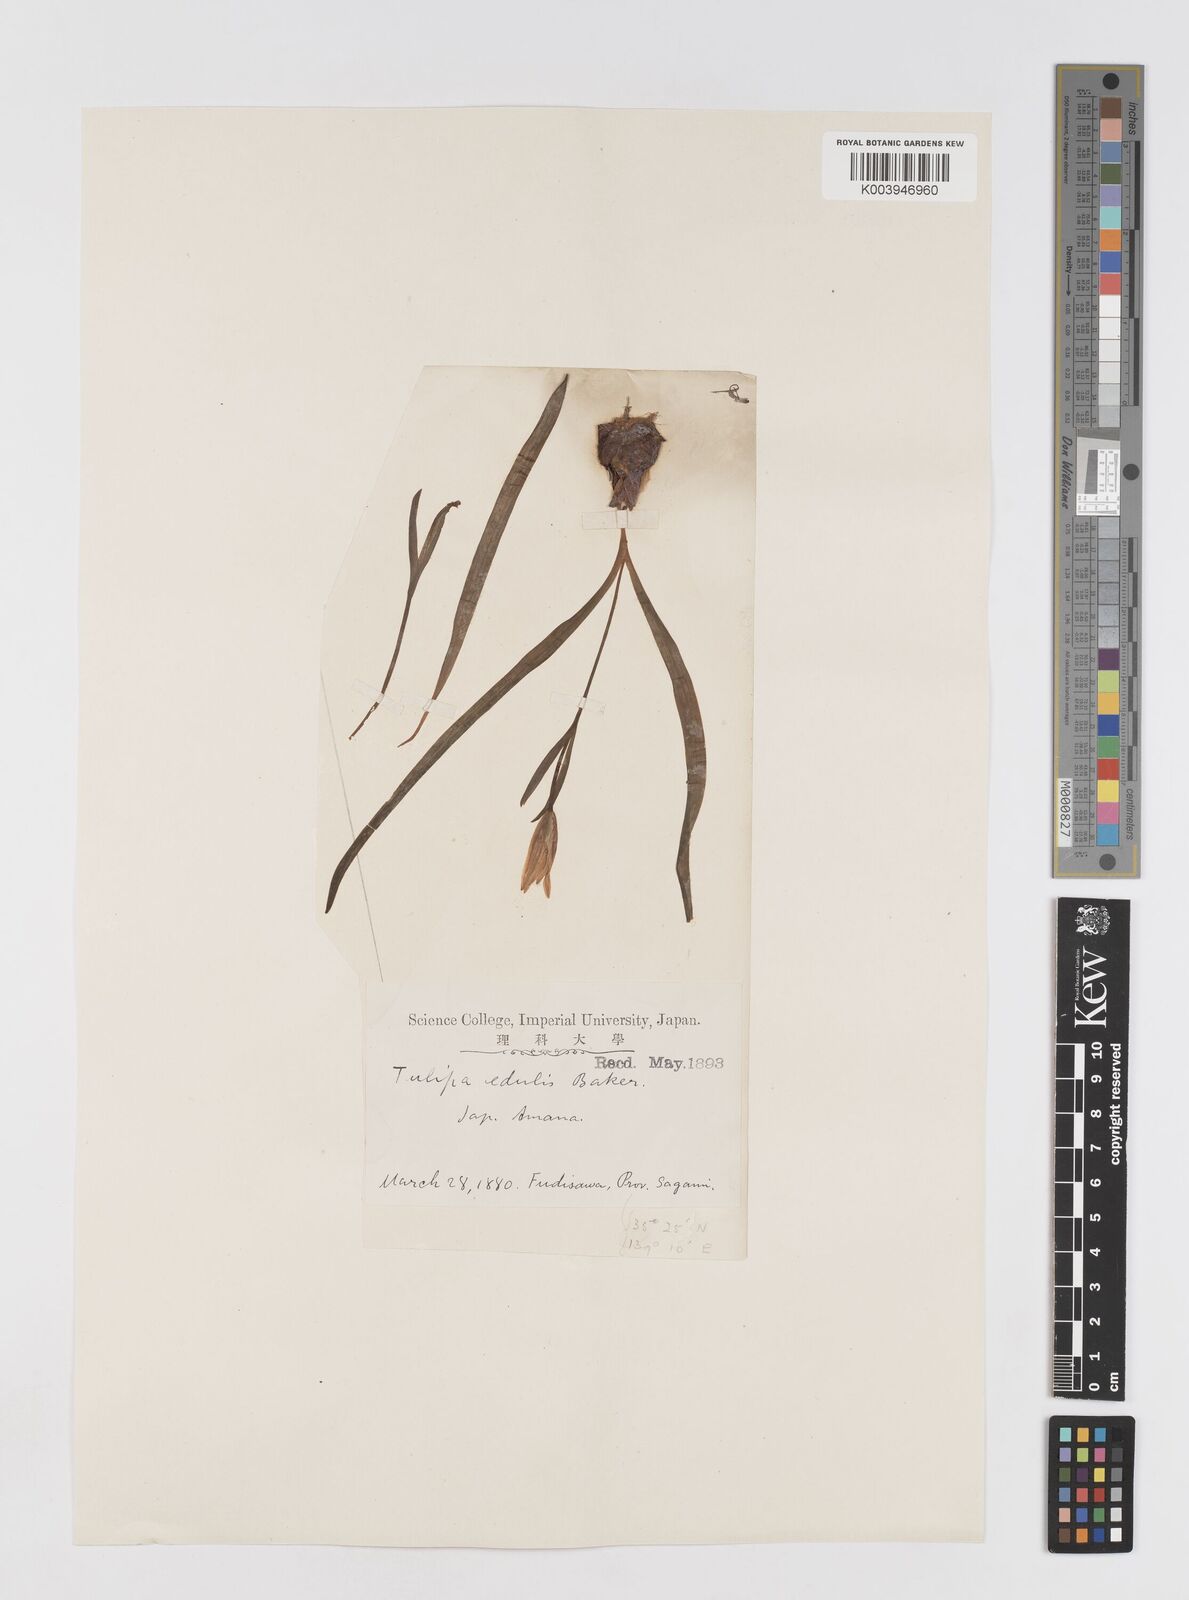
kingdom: Plantae
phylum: Tracheophyta
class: Liliopsida
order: Liliales
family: Liliaceae
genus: Amana
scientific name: Amana edulis
